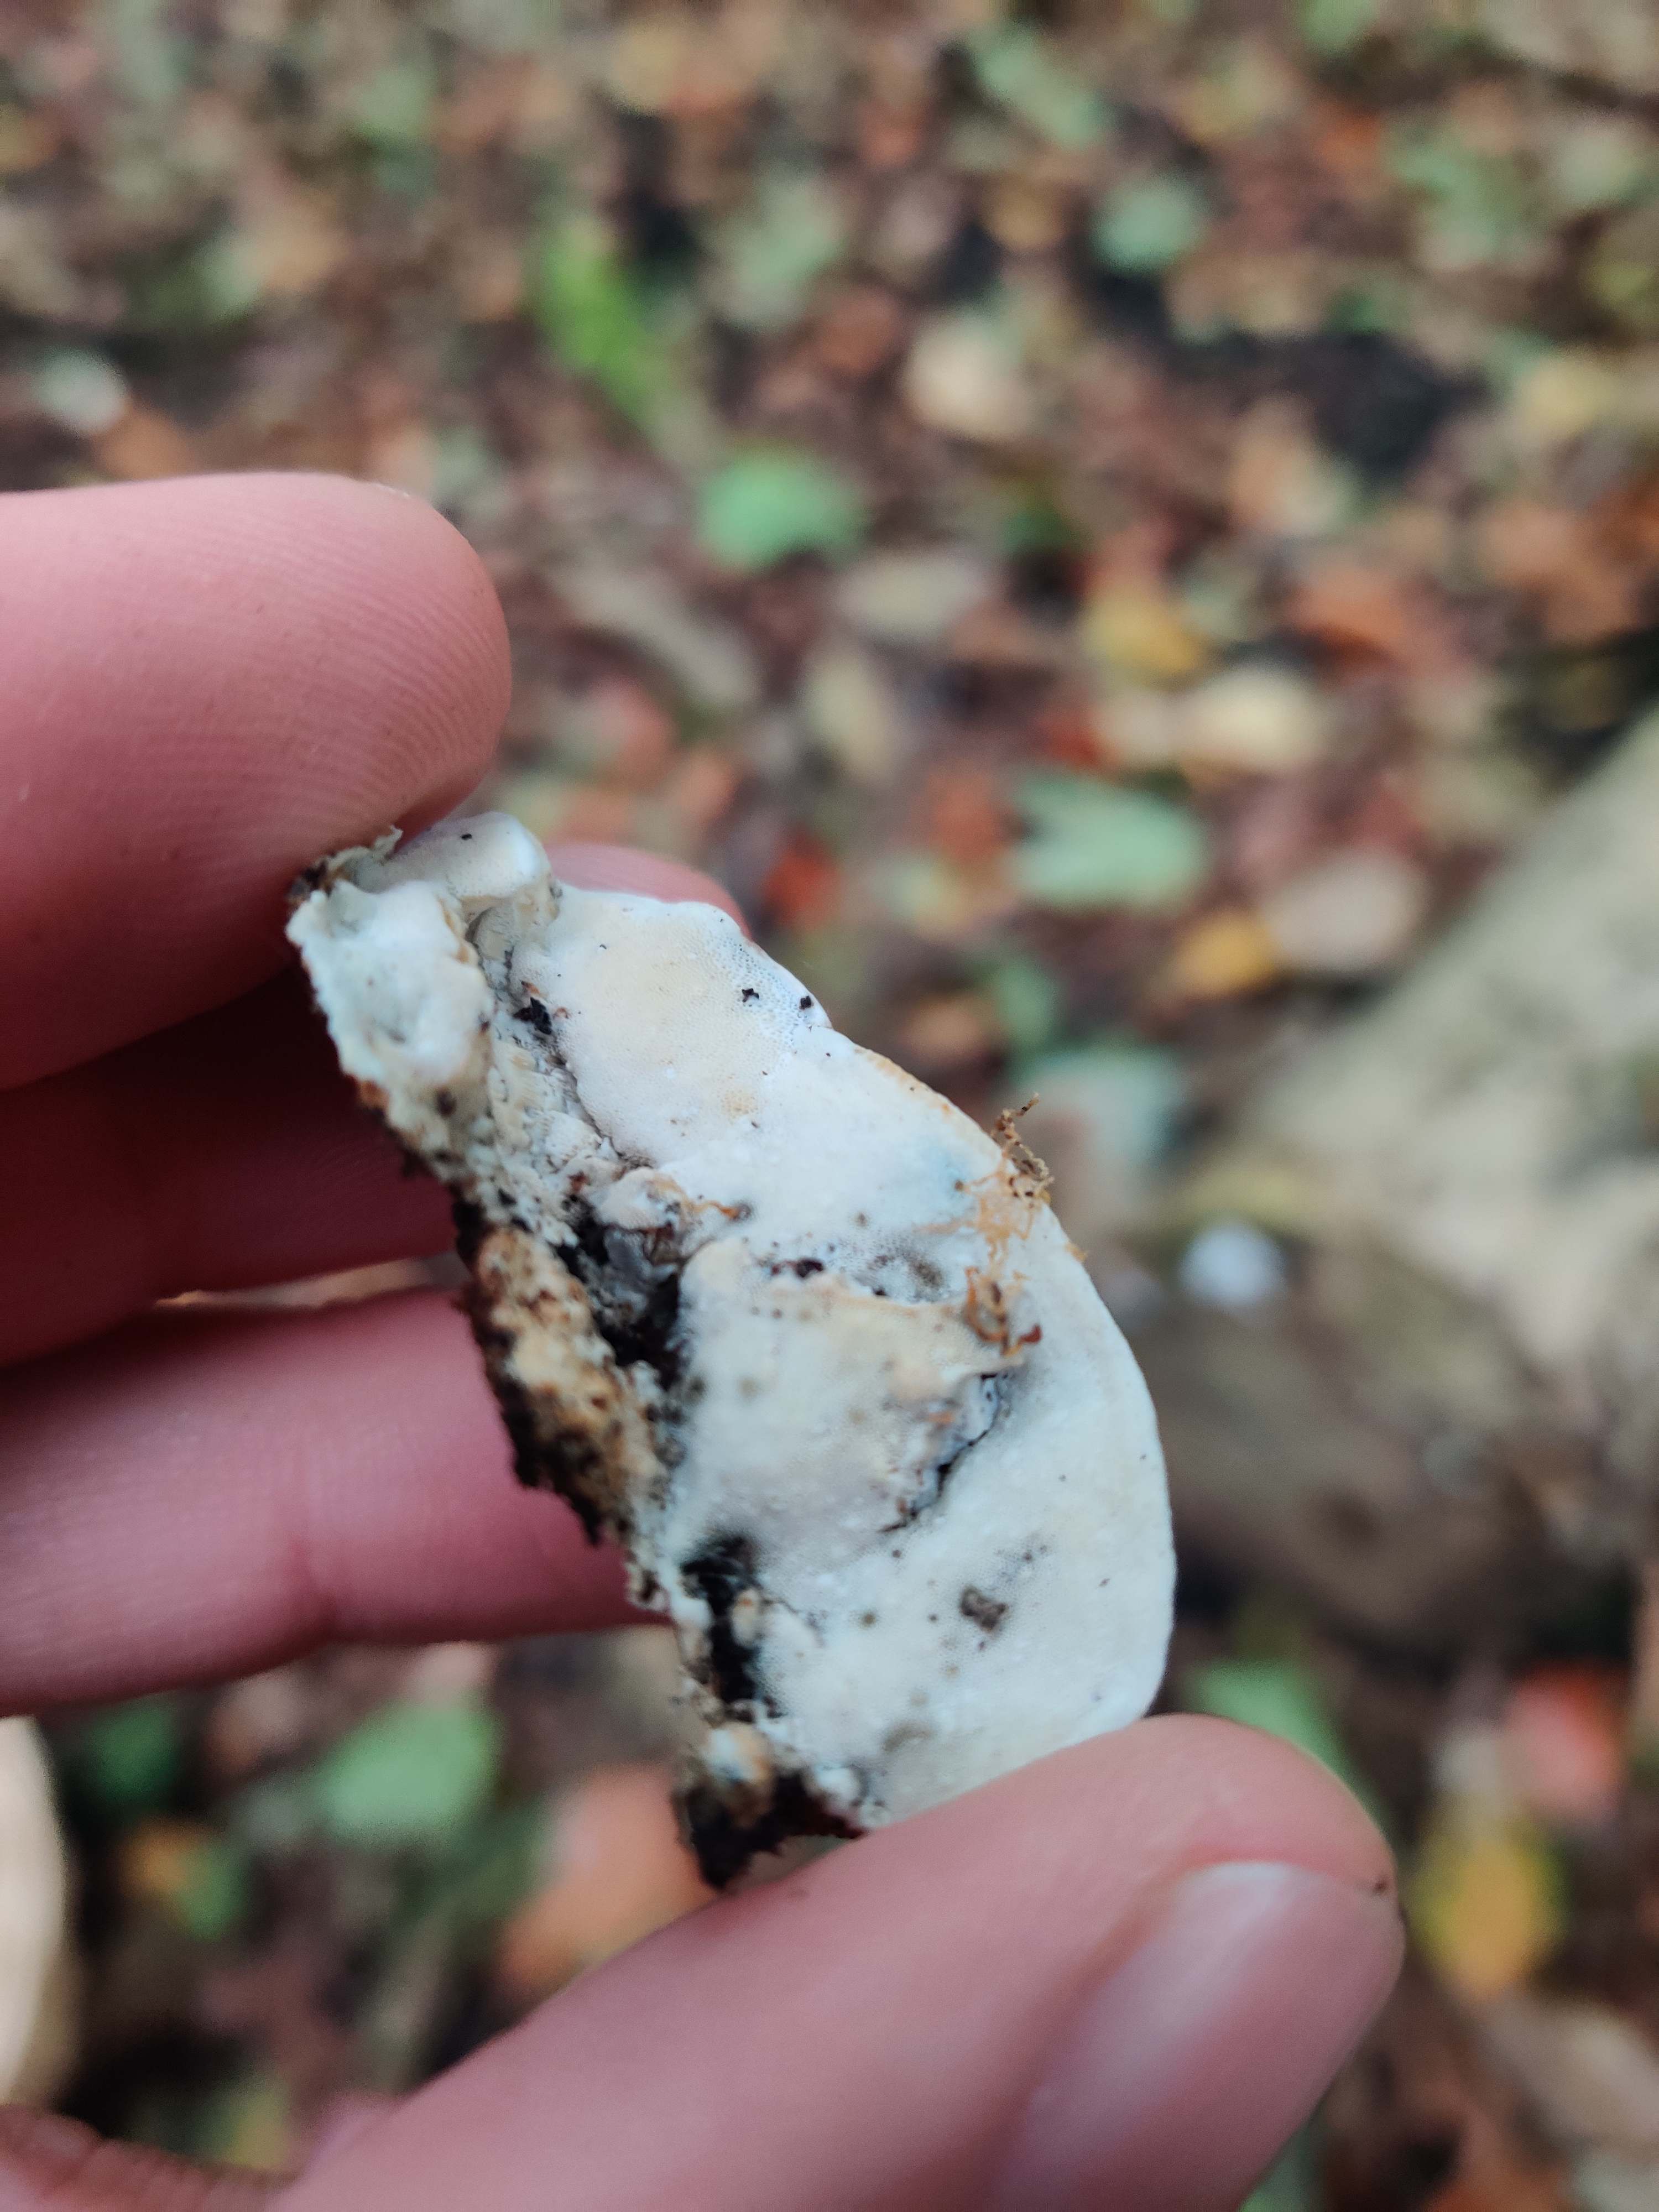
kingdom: Fungi
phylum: Basidiomycota
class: Agaricomycetes
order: Polyporales
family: Incrustoporiaceae
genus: Skeletocutis
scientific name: Skeletocutis nemoralis
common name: stor krystalporesvamp
